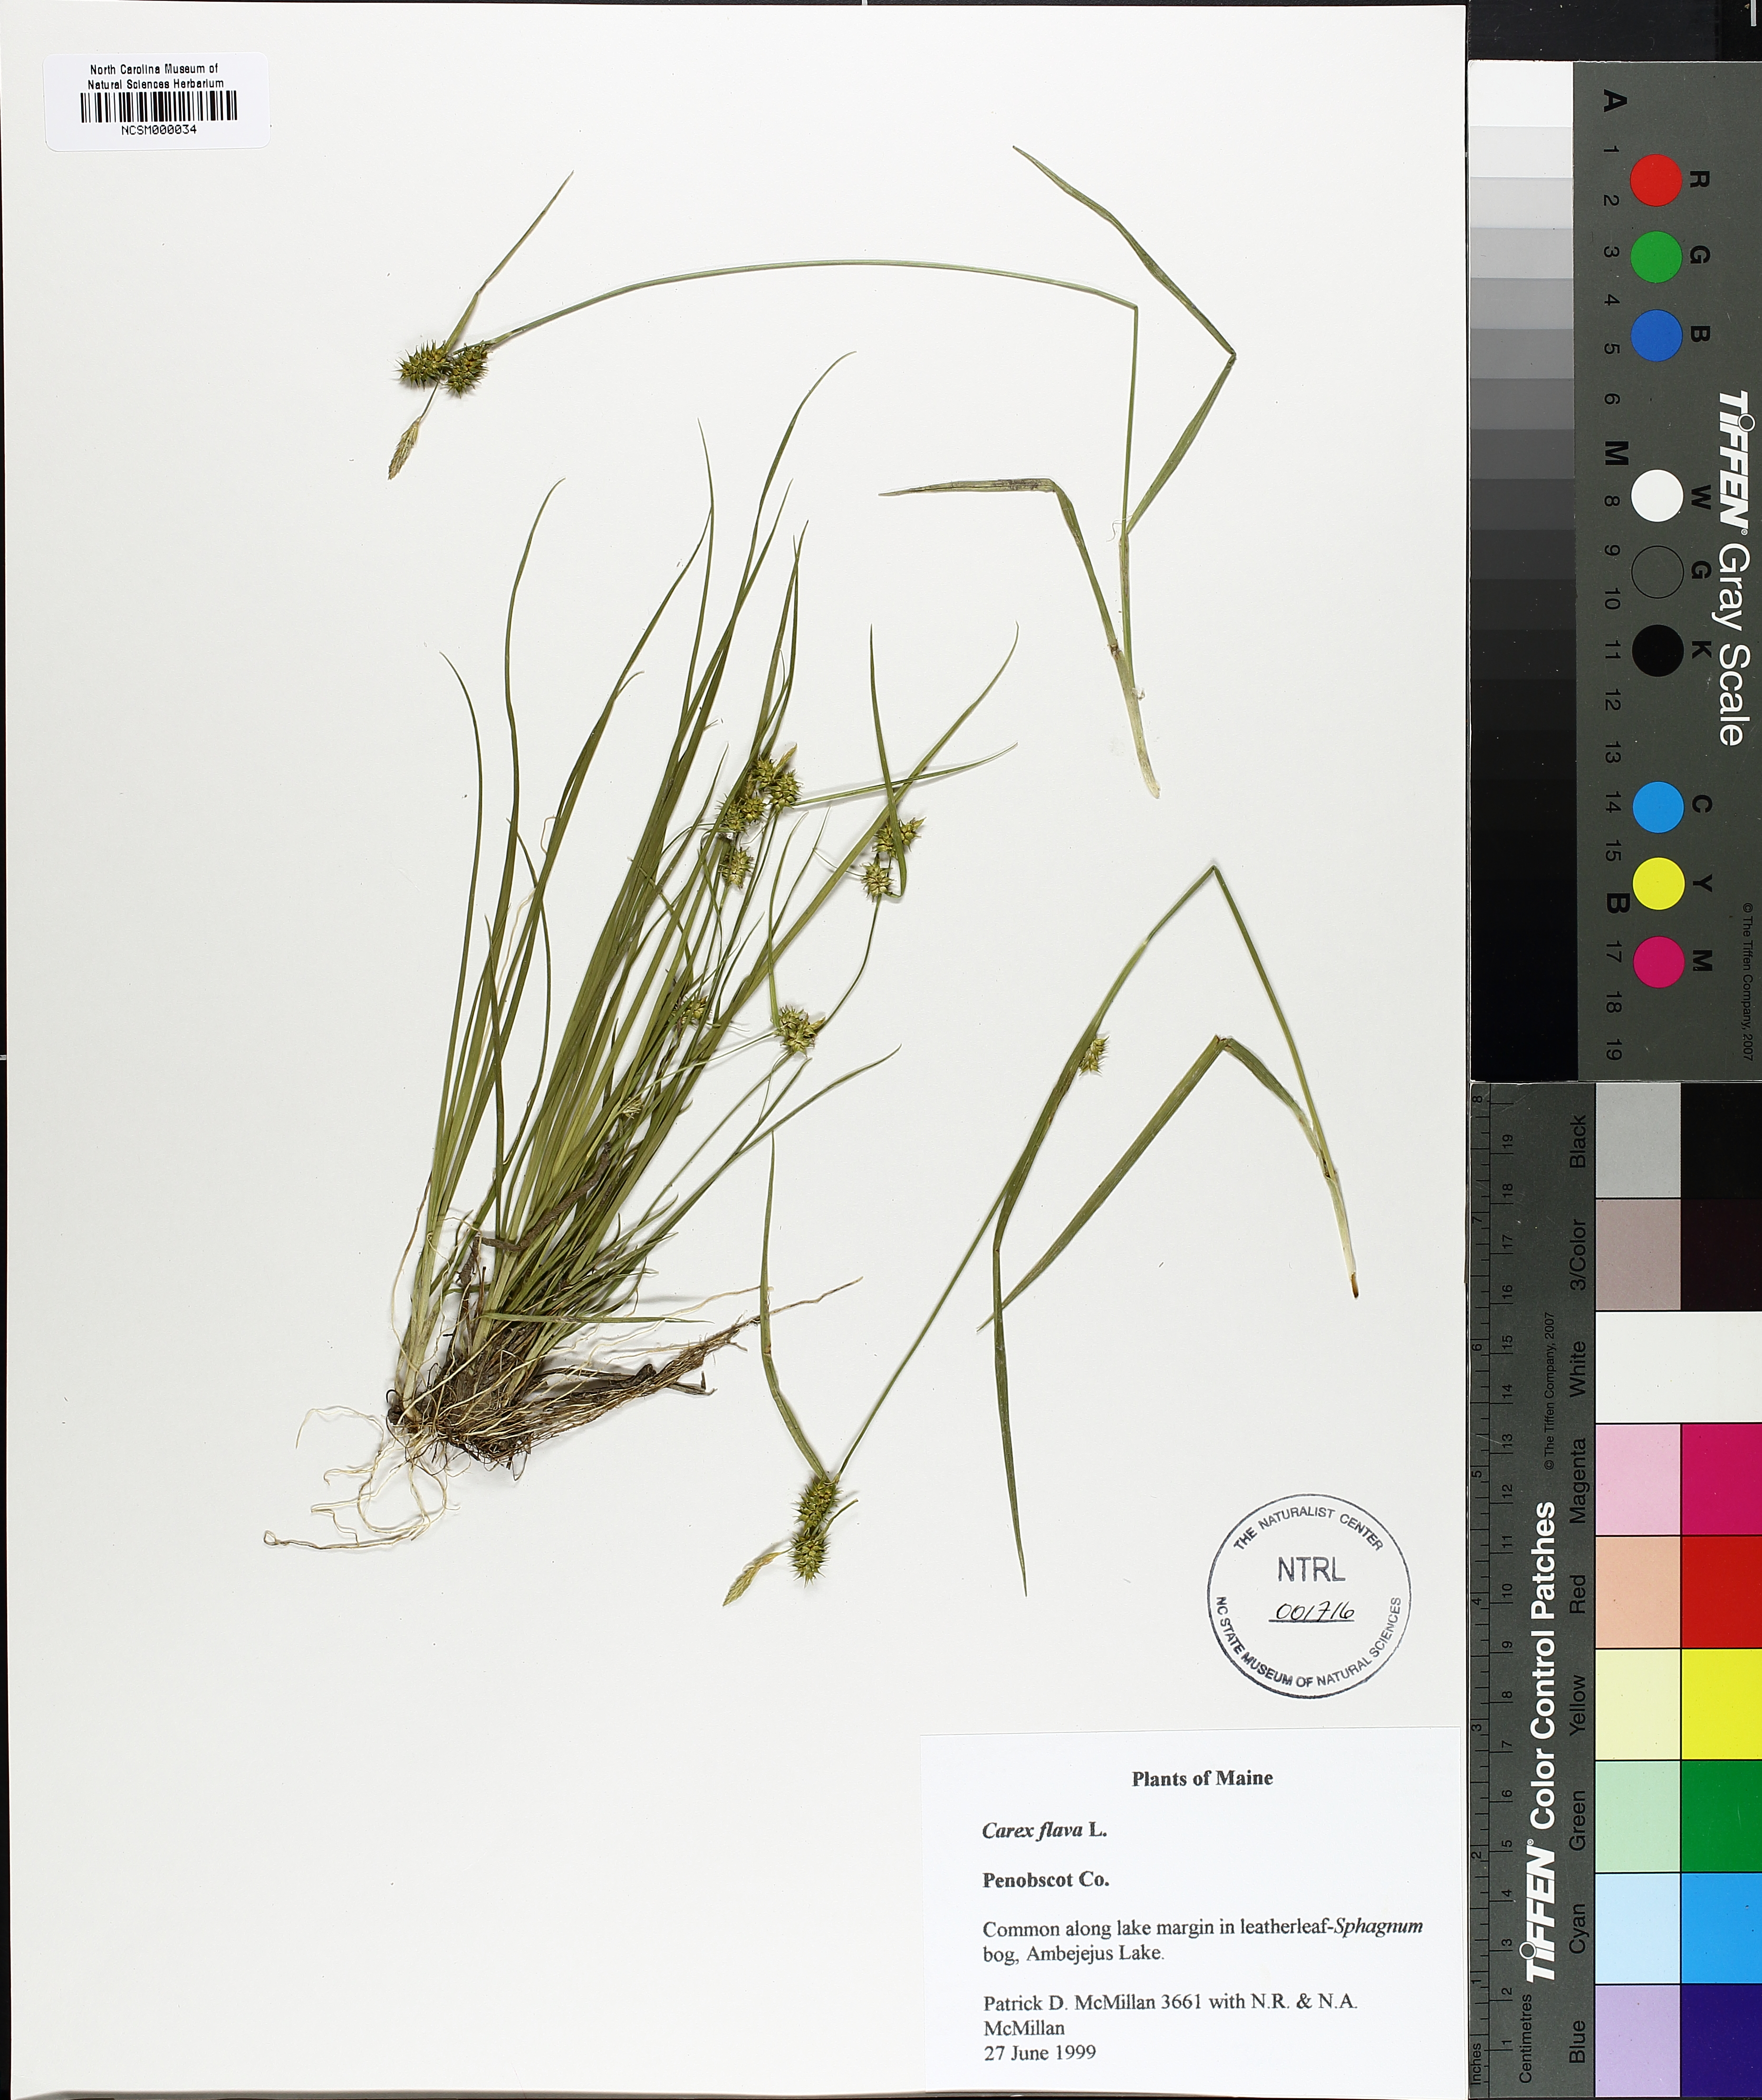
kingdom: Plantae
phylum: Tracheophyta
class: Liliopsida
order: Poales
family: Cyperaceae
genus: Carex
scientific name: Carex flava
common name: Large yellow-sedge
